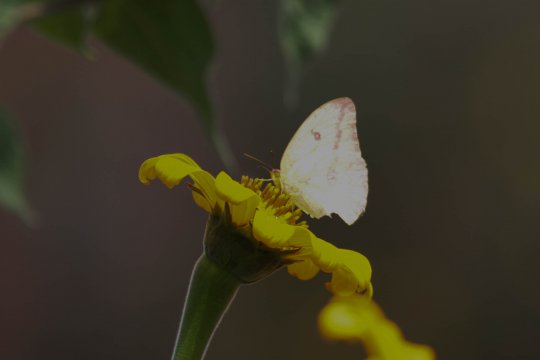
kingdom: Animalia
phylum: Arthropoda
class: Insecta
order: Lepidoptera
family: Pieridae
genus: Phoebis
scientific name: Phoebis agarithe
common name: Large Orange Sulphur
